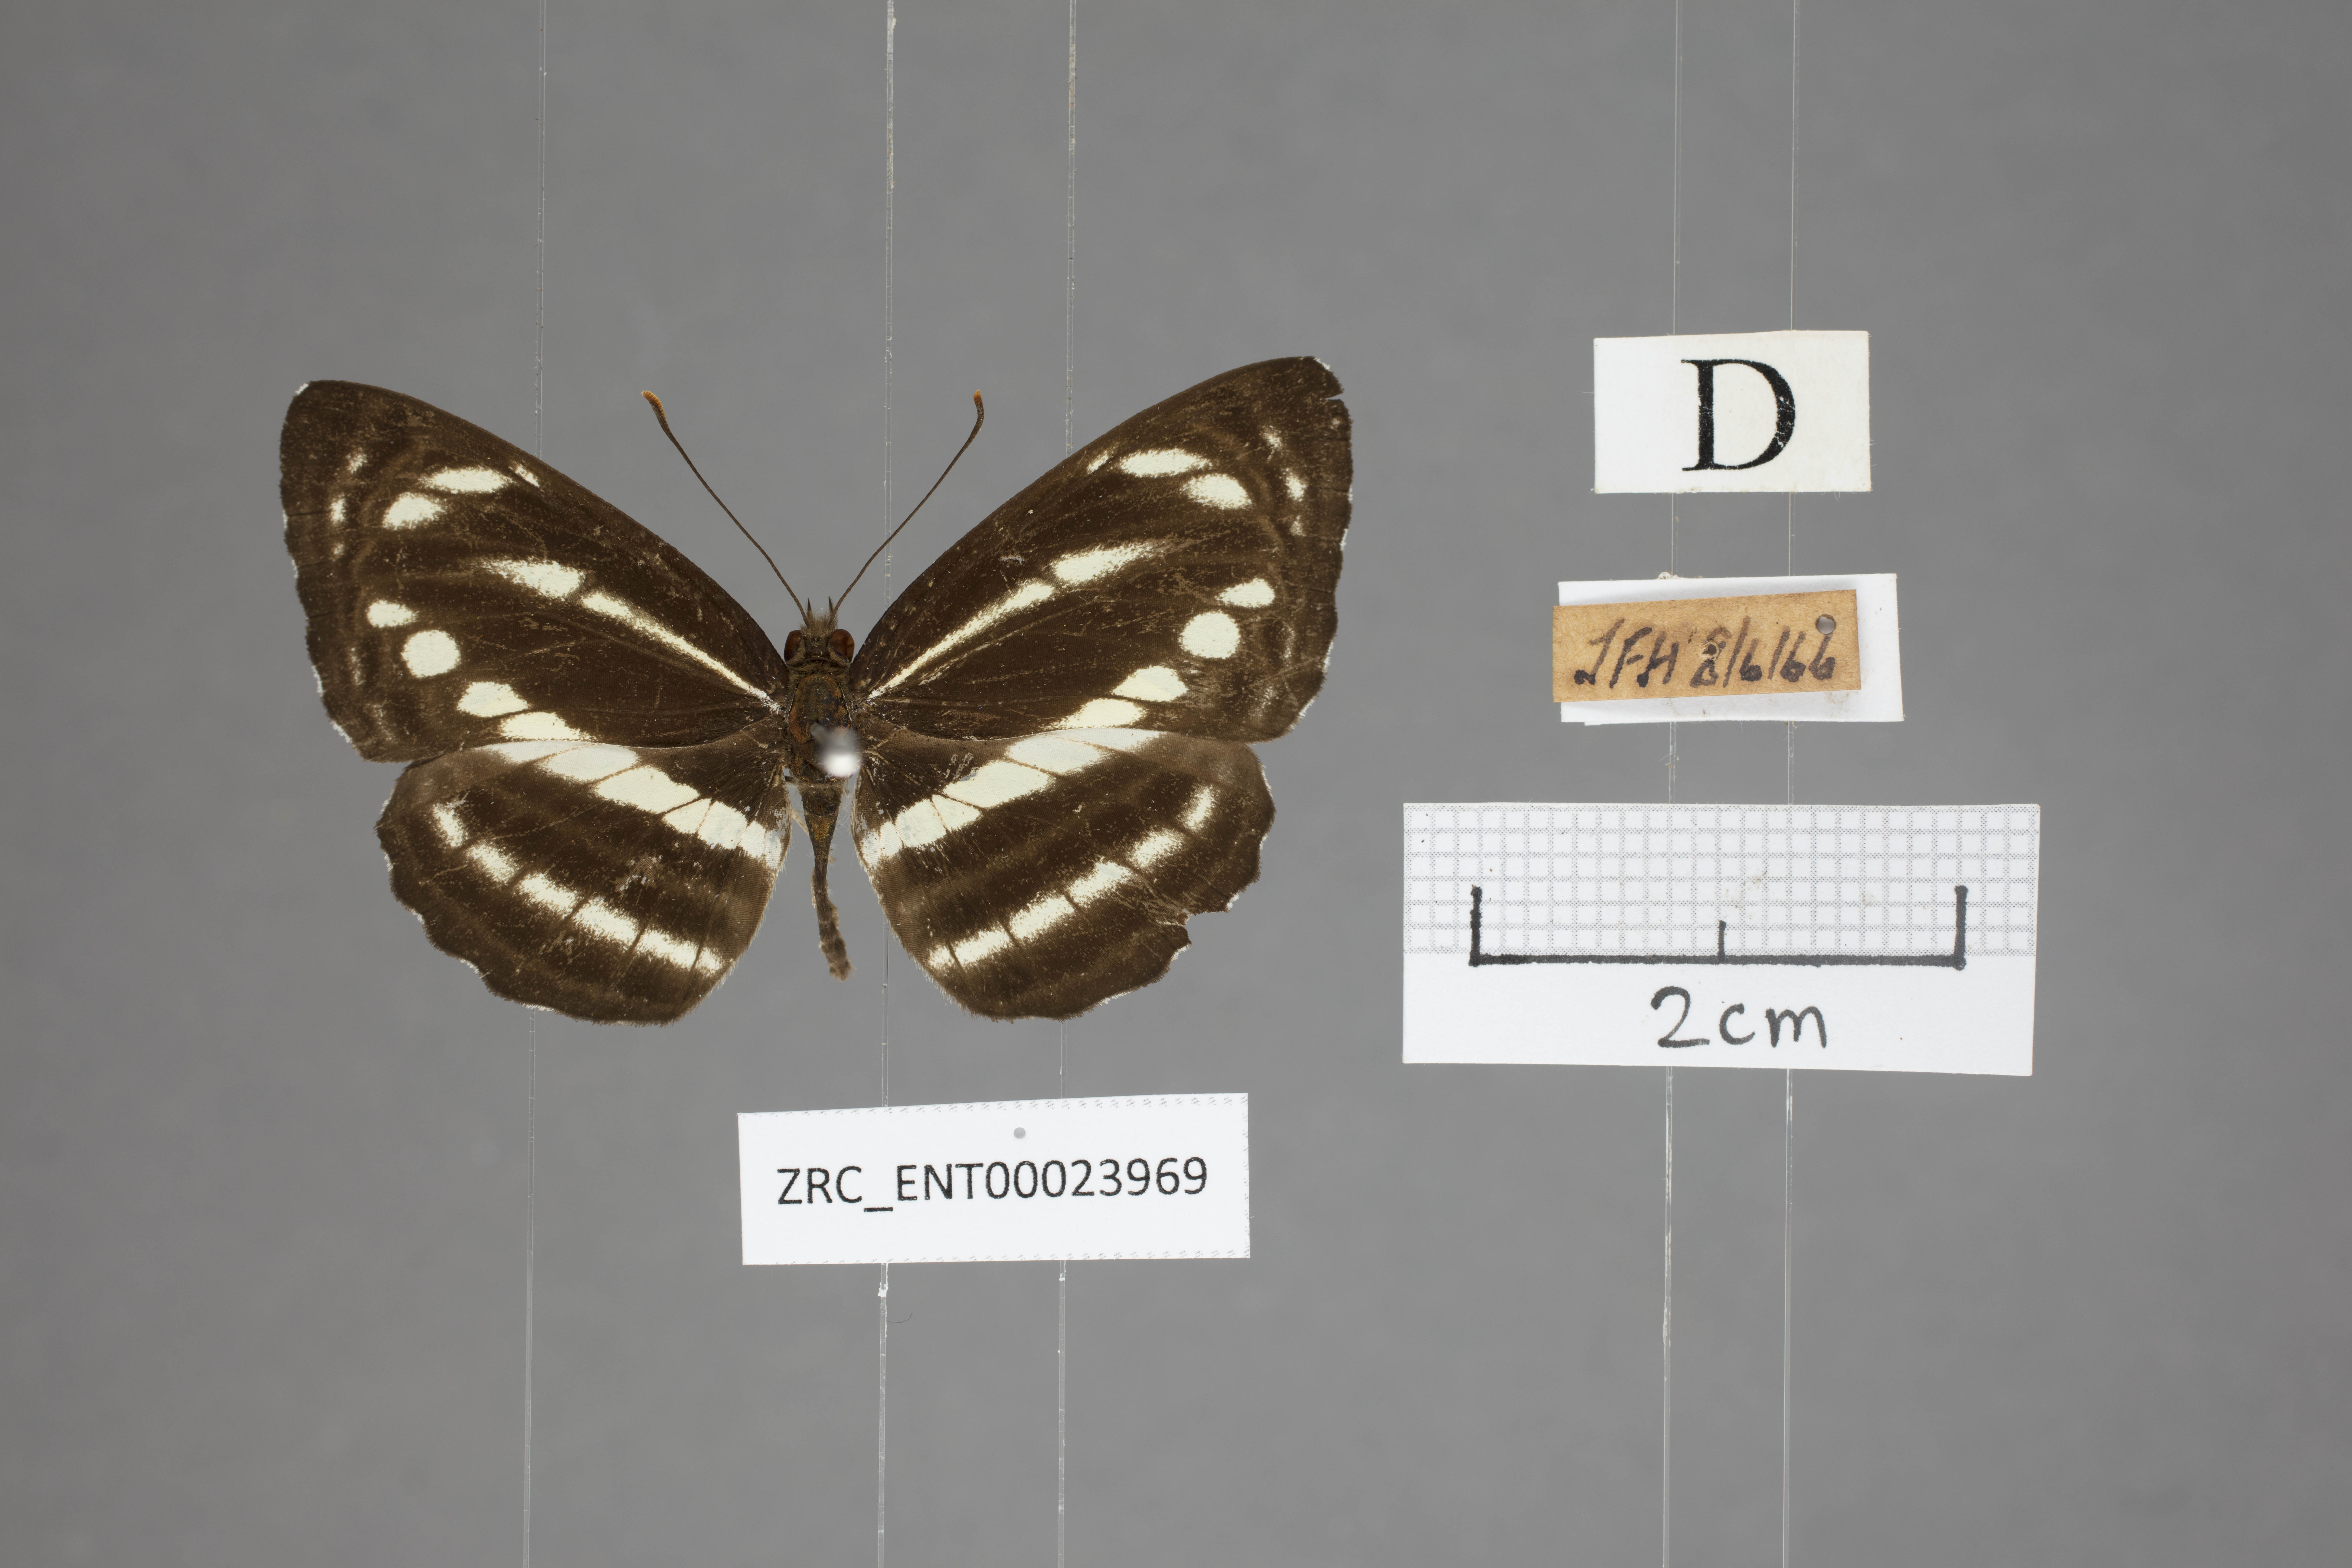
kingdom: Animalia
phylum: Arthropoda
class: Insecta
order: Lepidoptera
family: Nymphalidae
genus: Neptis
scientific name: Neptis clinioides
